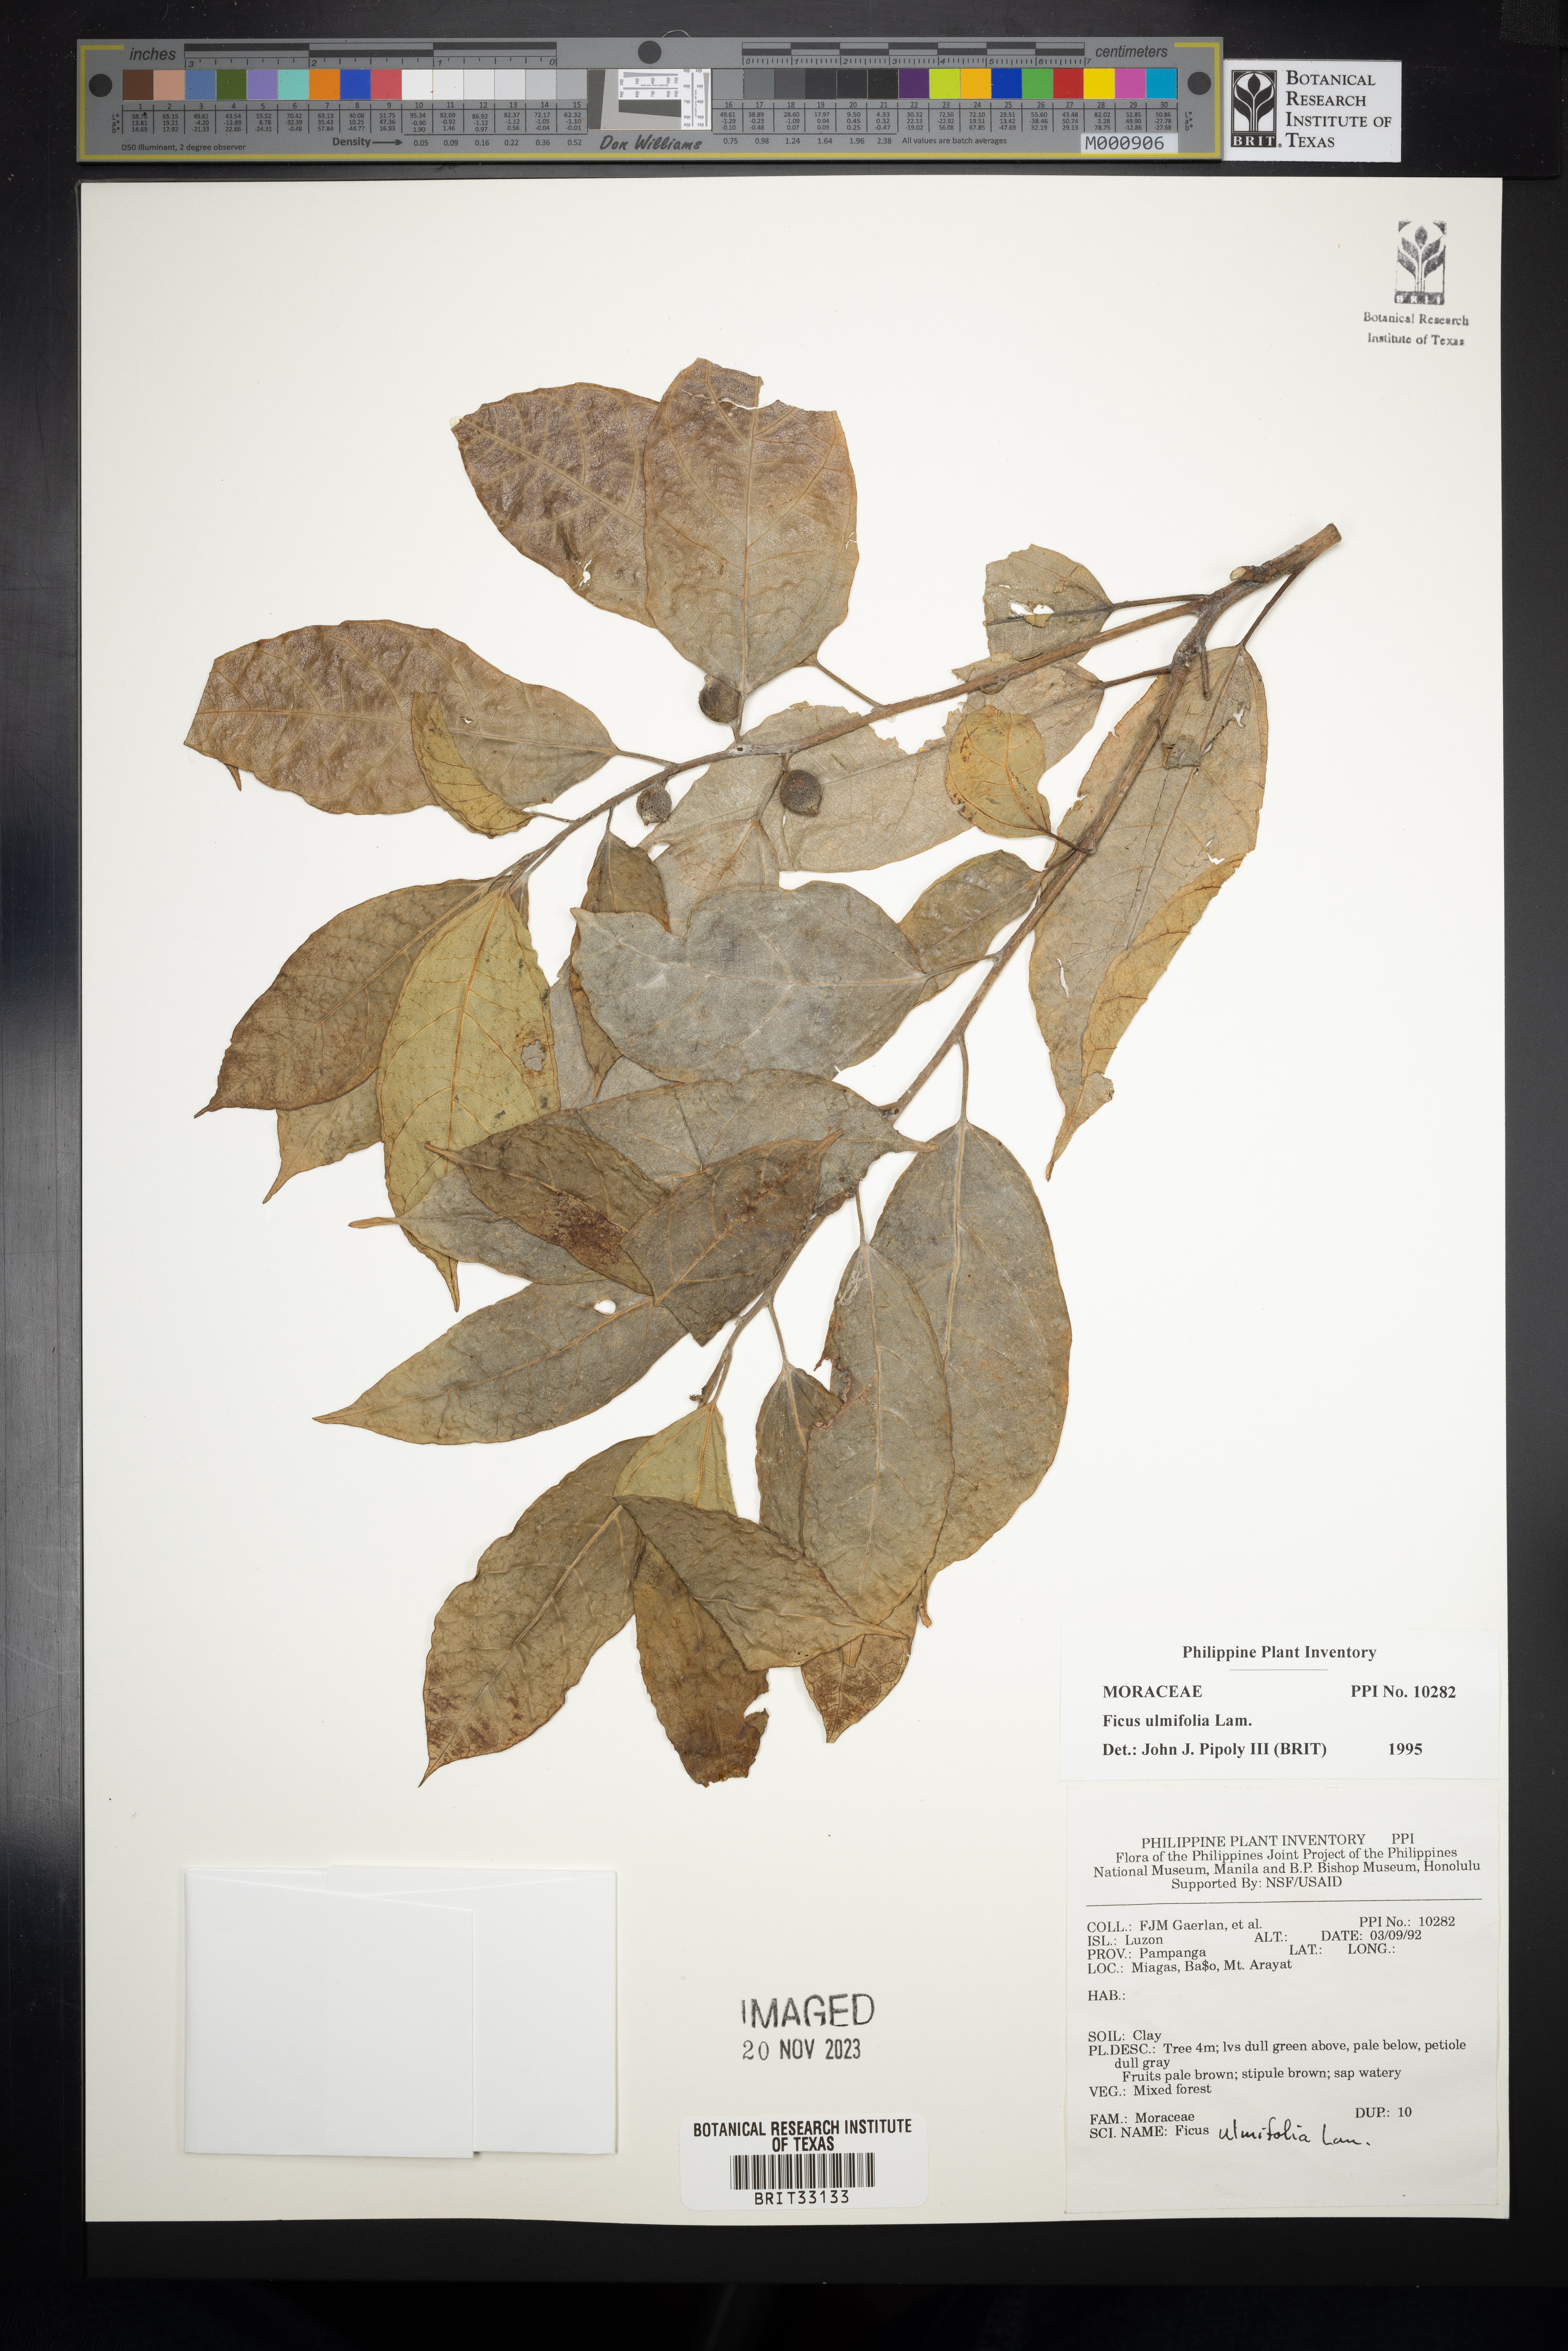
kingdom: Plantae
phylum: Tracheophyta
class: Magnoliopsida
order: Rosales
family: Moraceae
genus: Ficus
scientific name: Ficus ulmifolia
